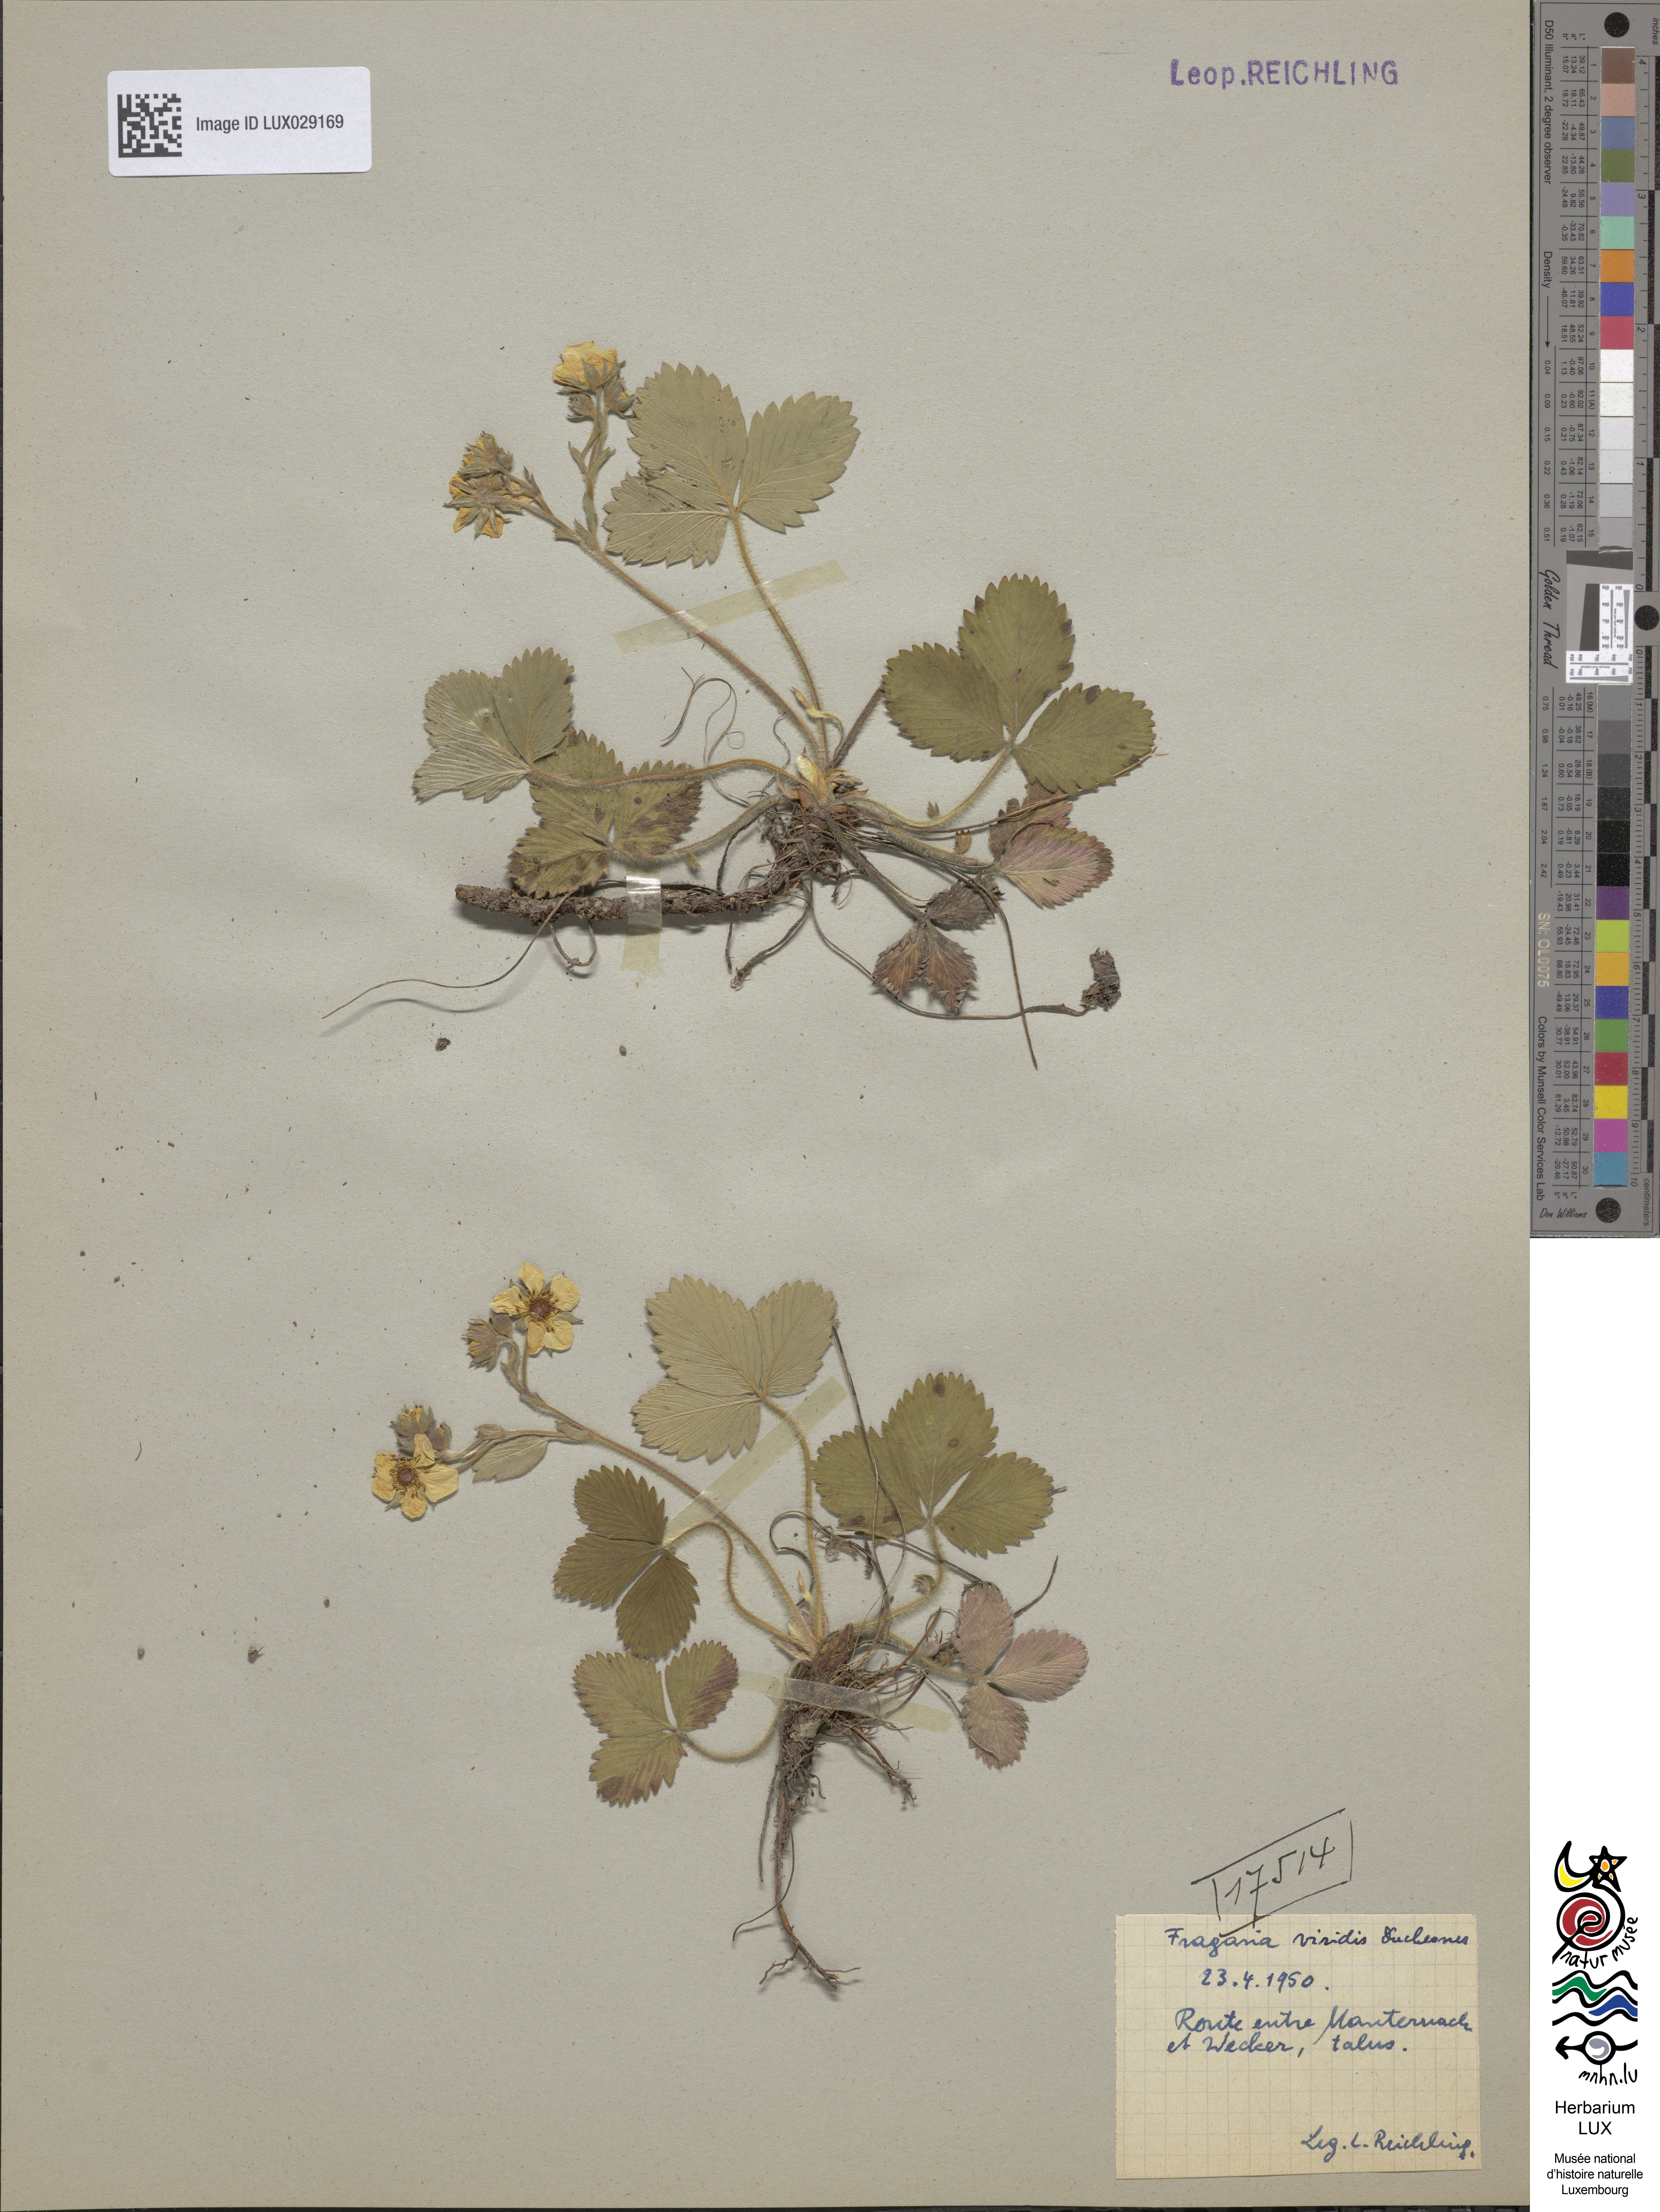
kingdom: Plantae
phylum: Tracheophyta
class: Magnoliopsida
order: Rosales
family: Rosaceae
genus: Fragaria
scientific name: Fragaria viridis
